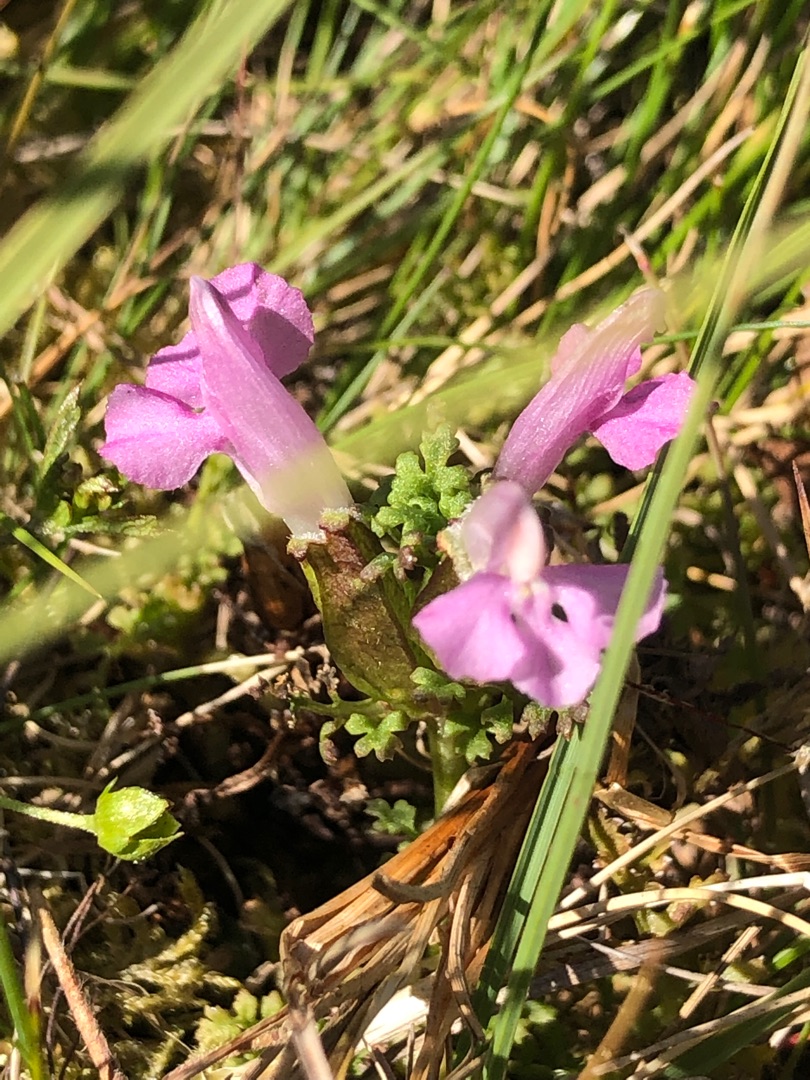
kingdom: Plantae
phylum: Tracheophyta
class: Magnoliopsida
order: Lamiales
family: Orobanchaceae
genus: Pedicularis
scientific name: Pedicularis sylvatica
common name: Mose-troldurt
